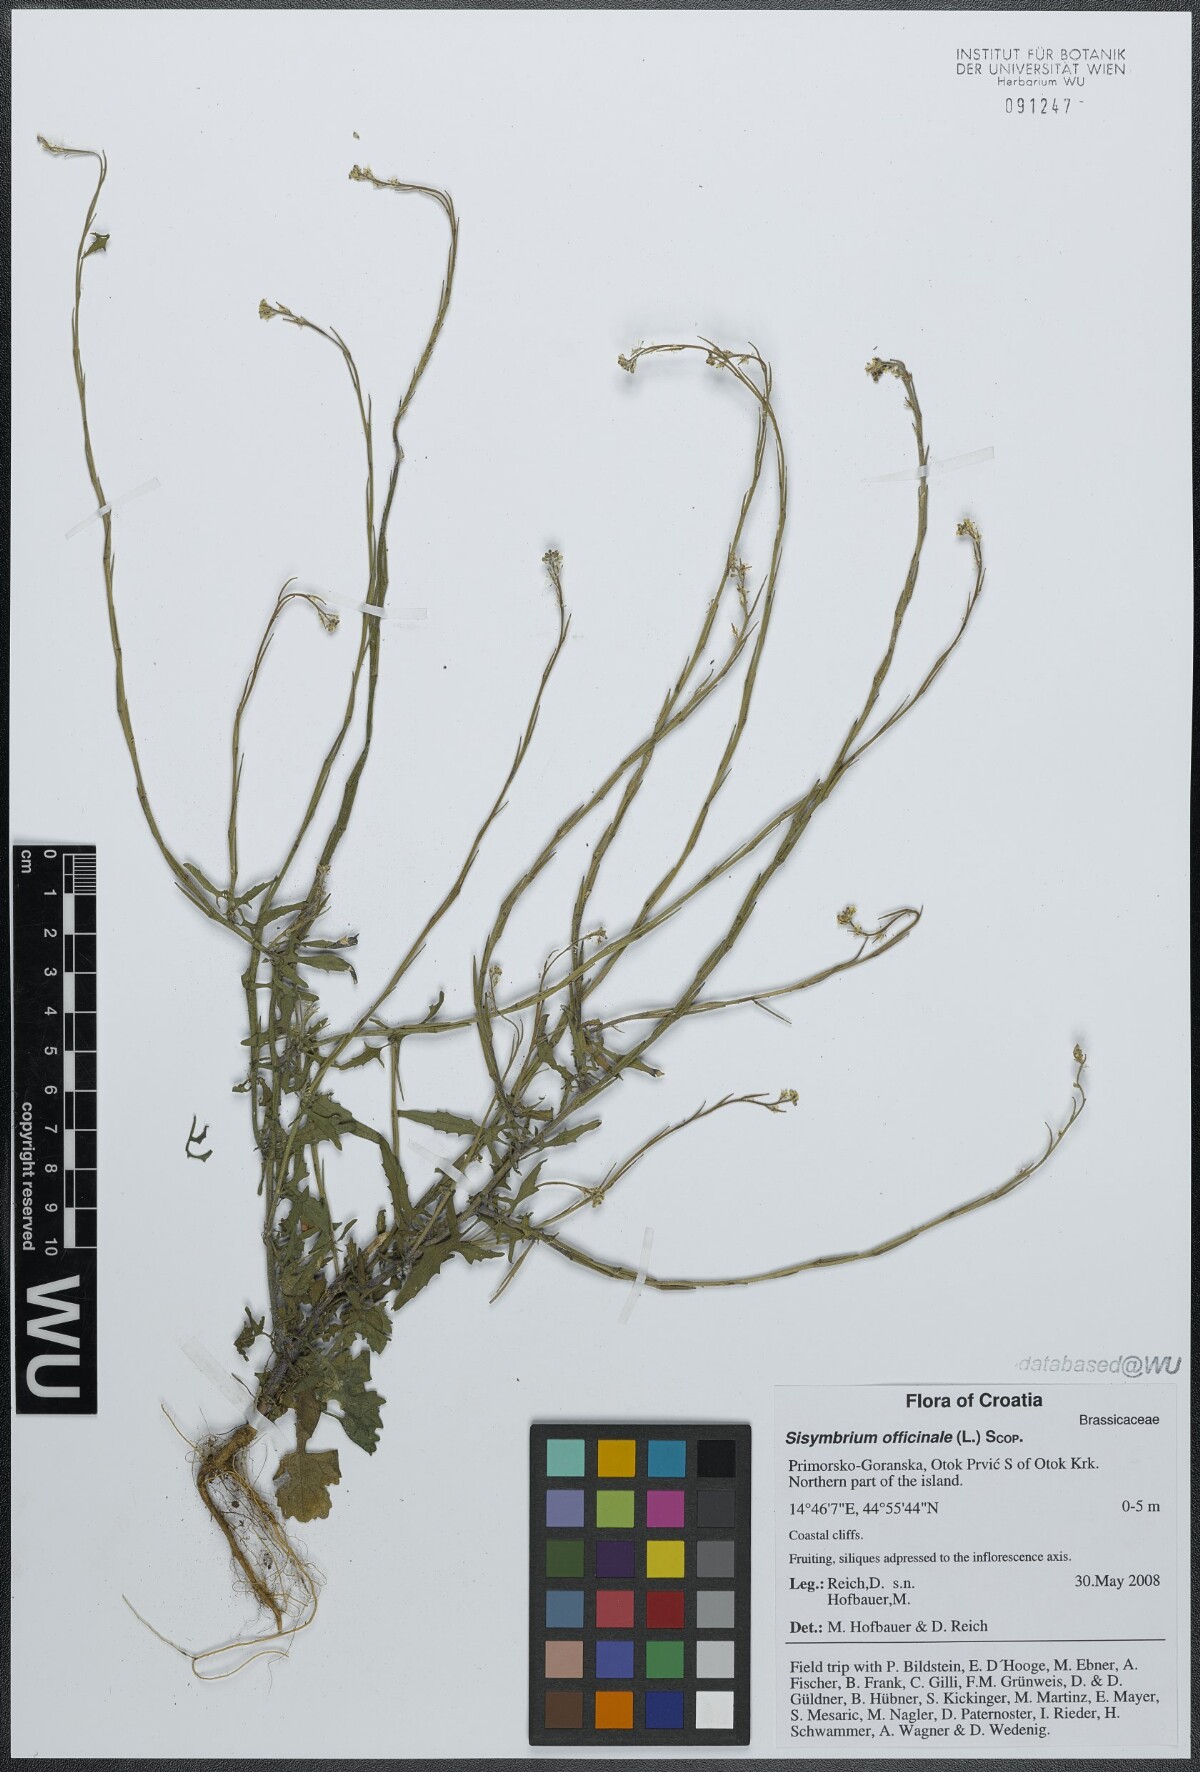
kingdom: Plantae
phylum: Tracheophyta
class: Magnoliopsida
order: Brassicales
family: Brassicaceae
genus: Sisymbrium
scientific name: Sisymbrium officinale
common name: Hedge mustard
